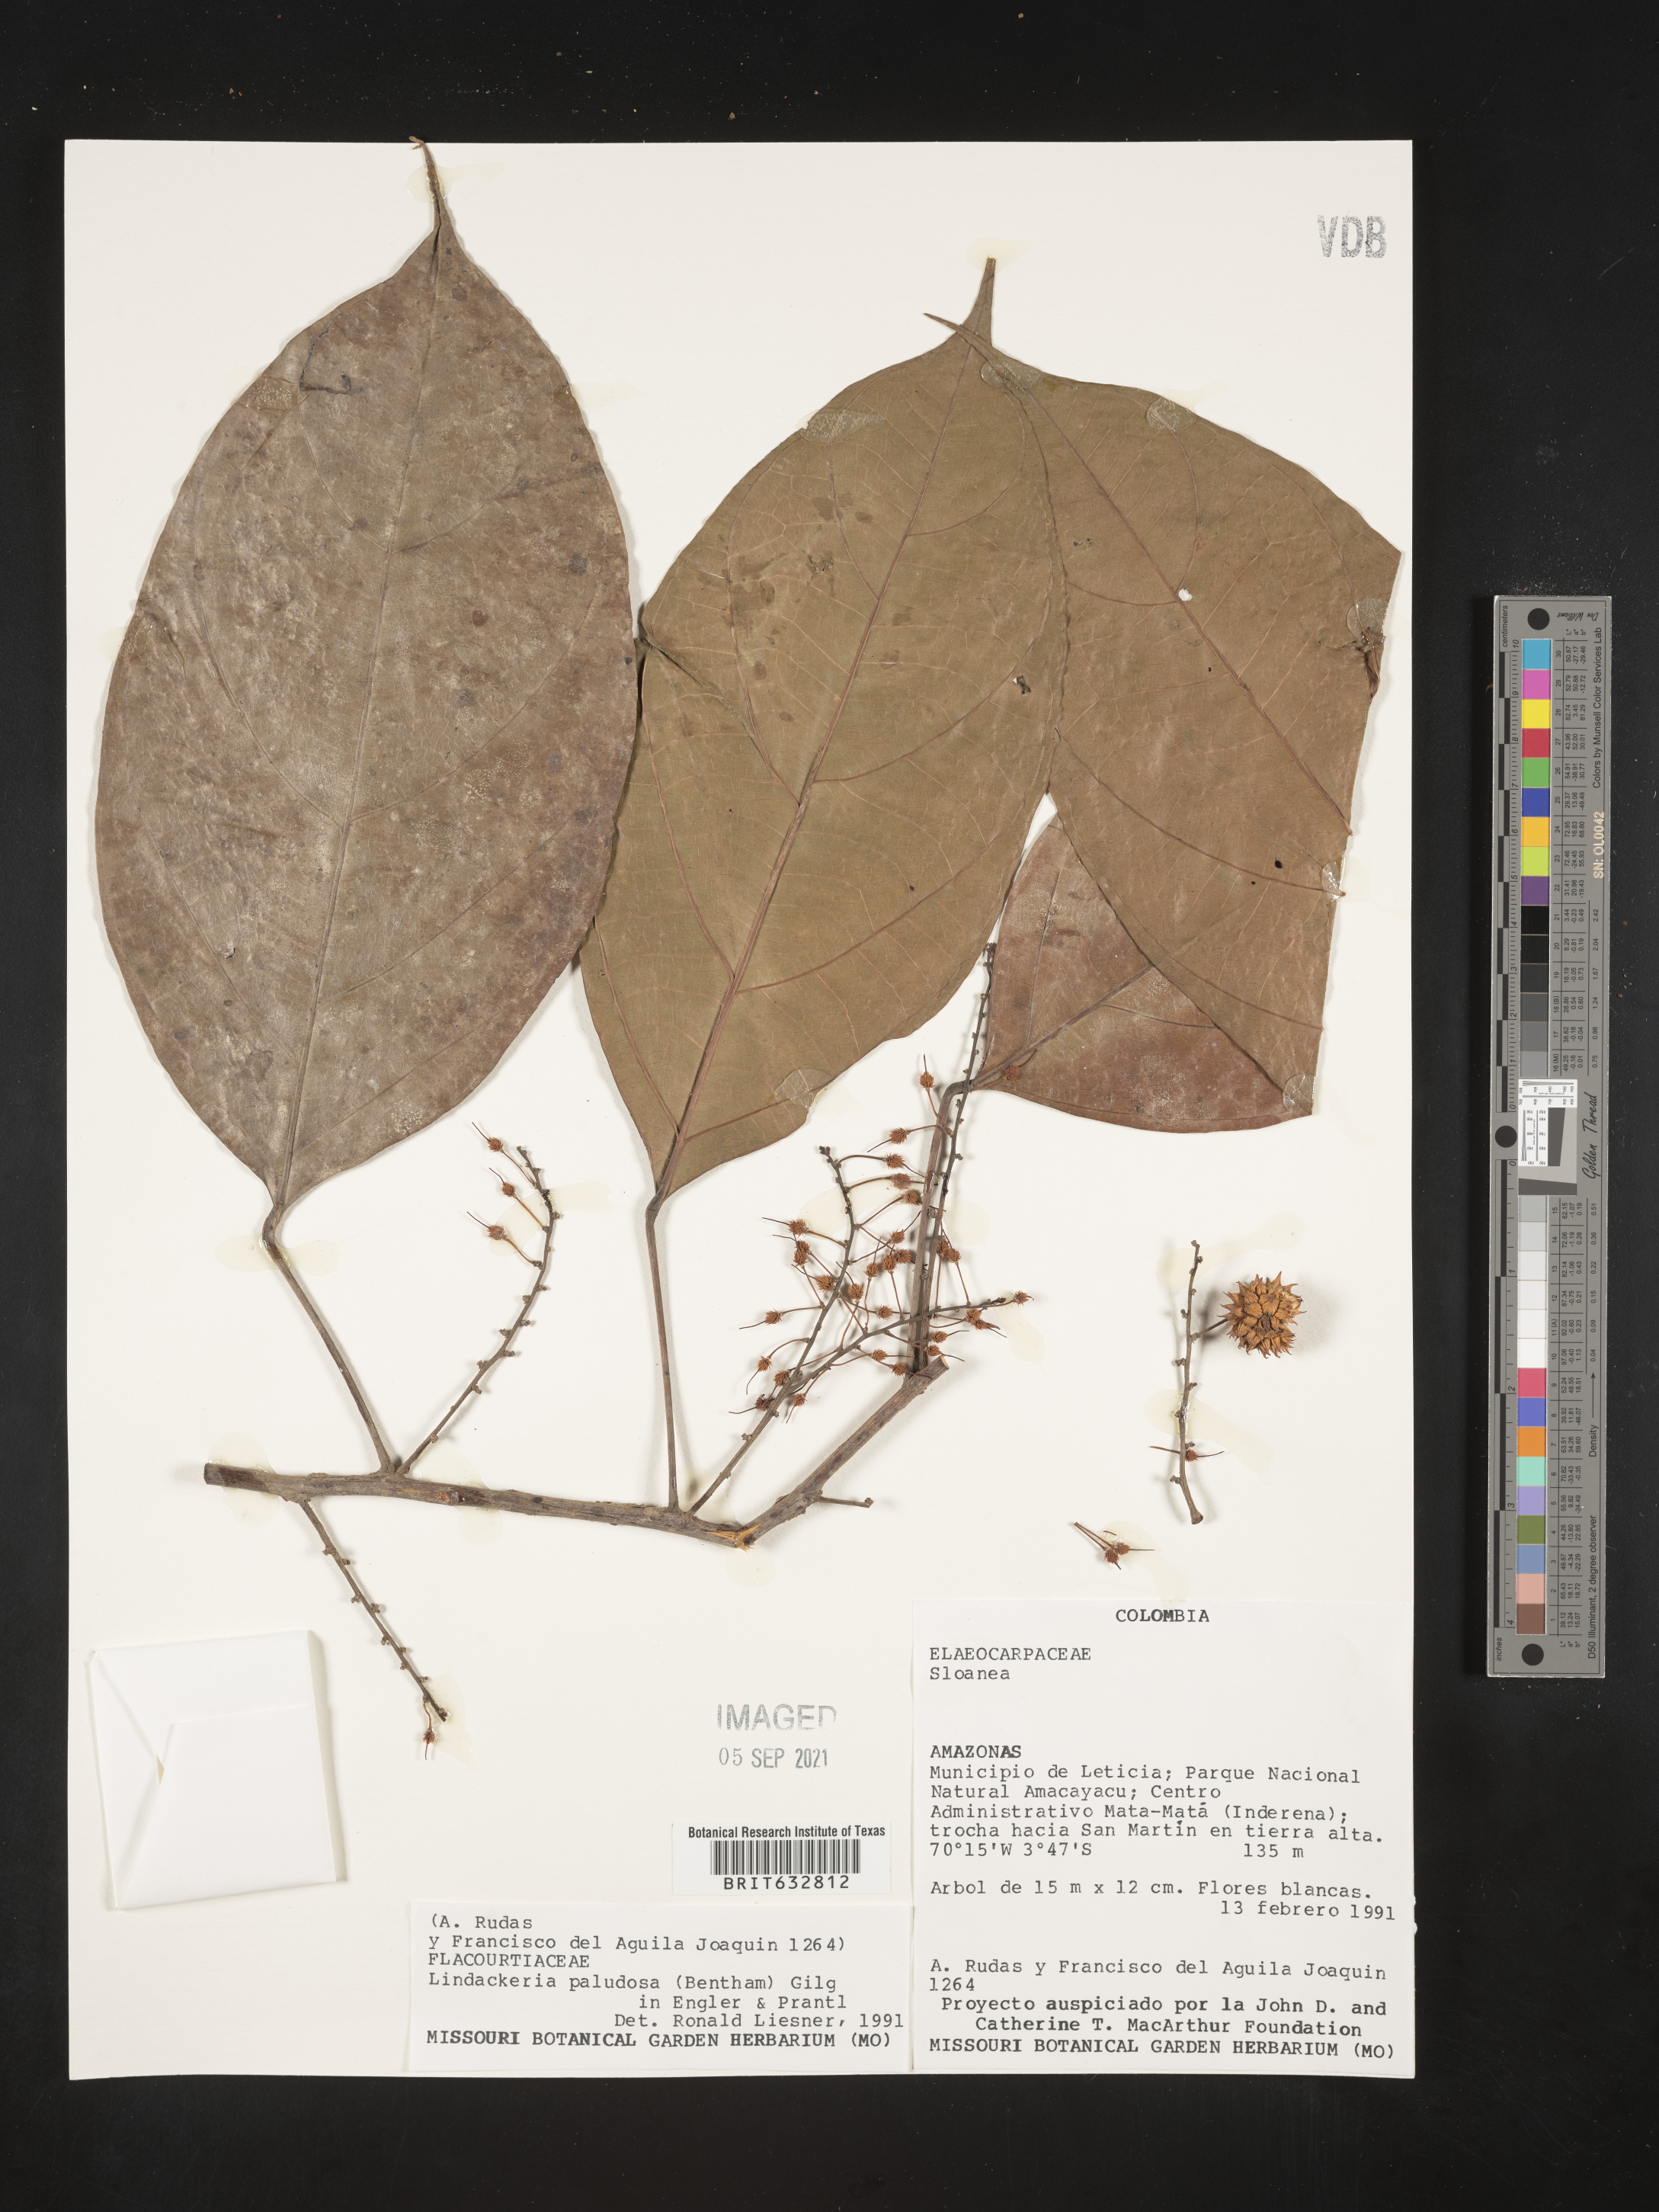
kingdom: Plantae
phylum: Tracheophyta
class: Magnoliopsida
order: Malpighiales
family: Achariaceae
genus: Lindackeria
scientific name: Lindackeria paludosa
